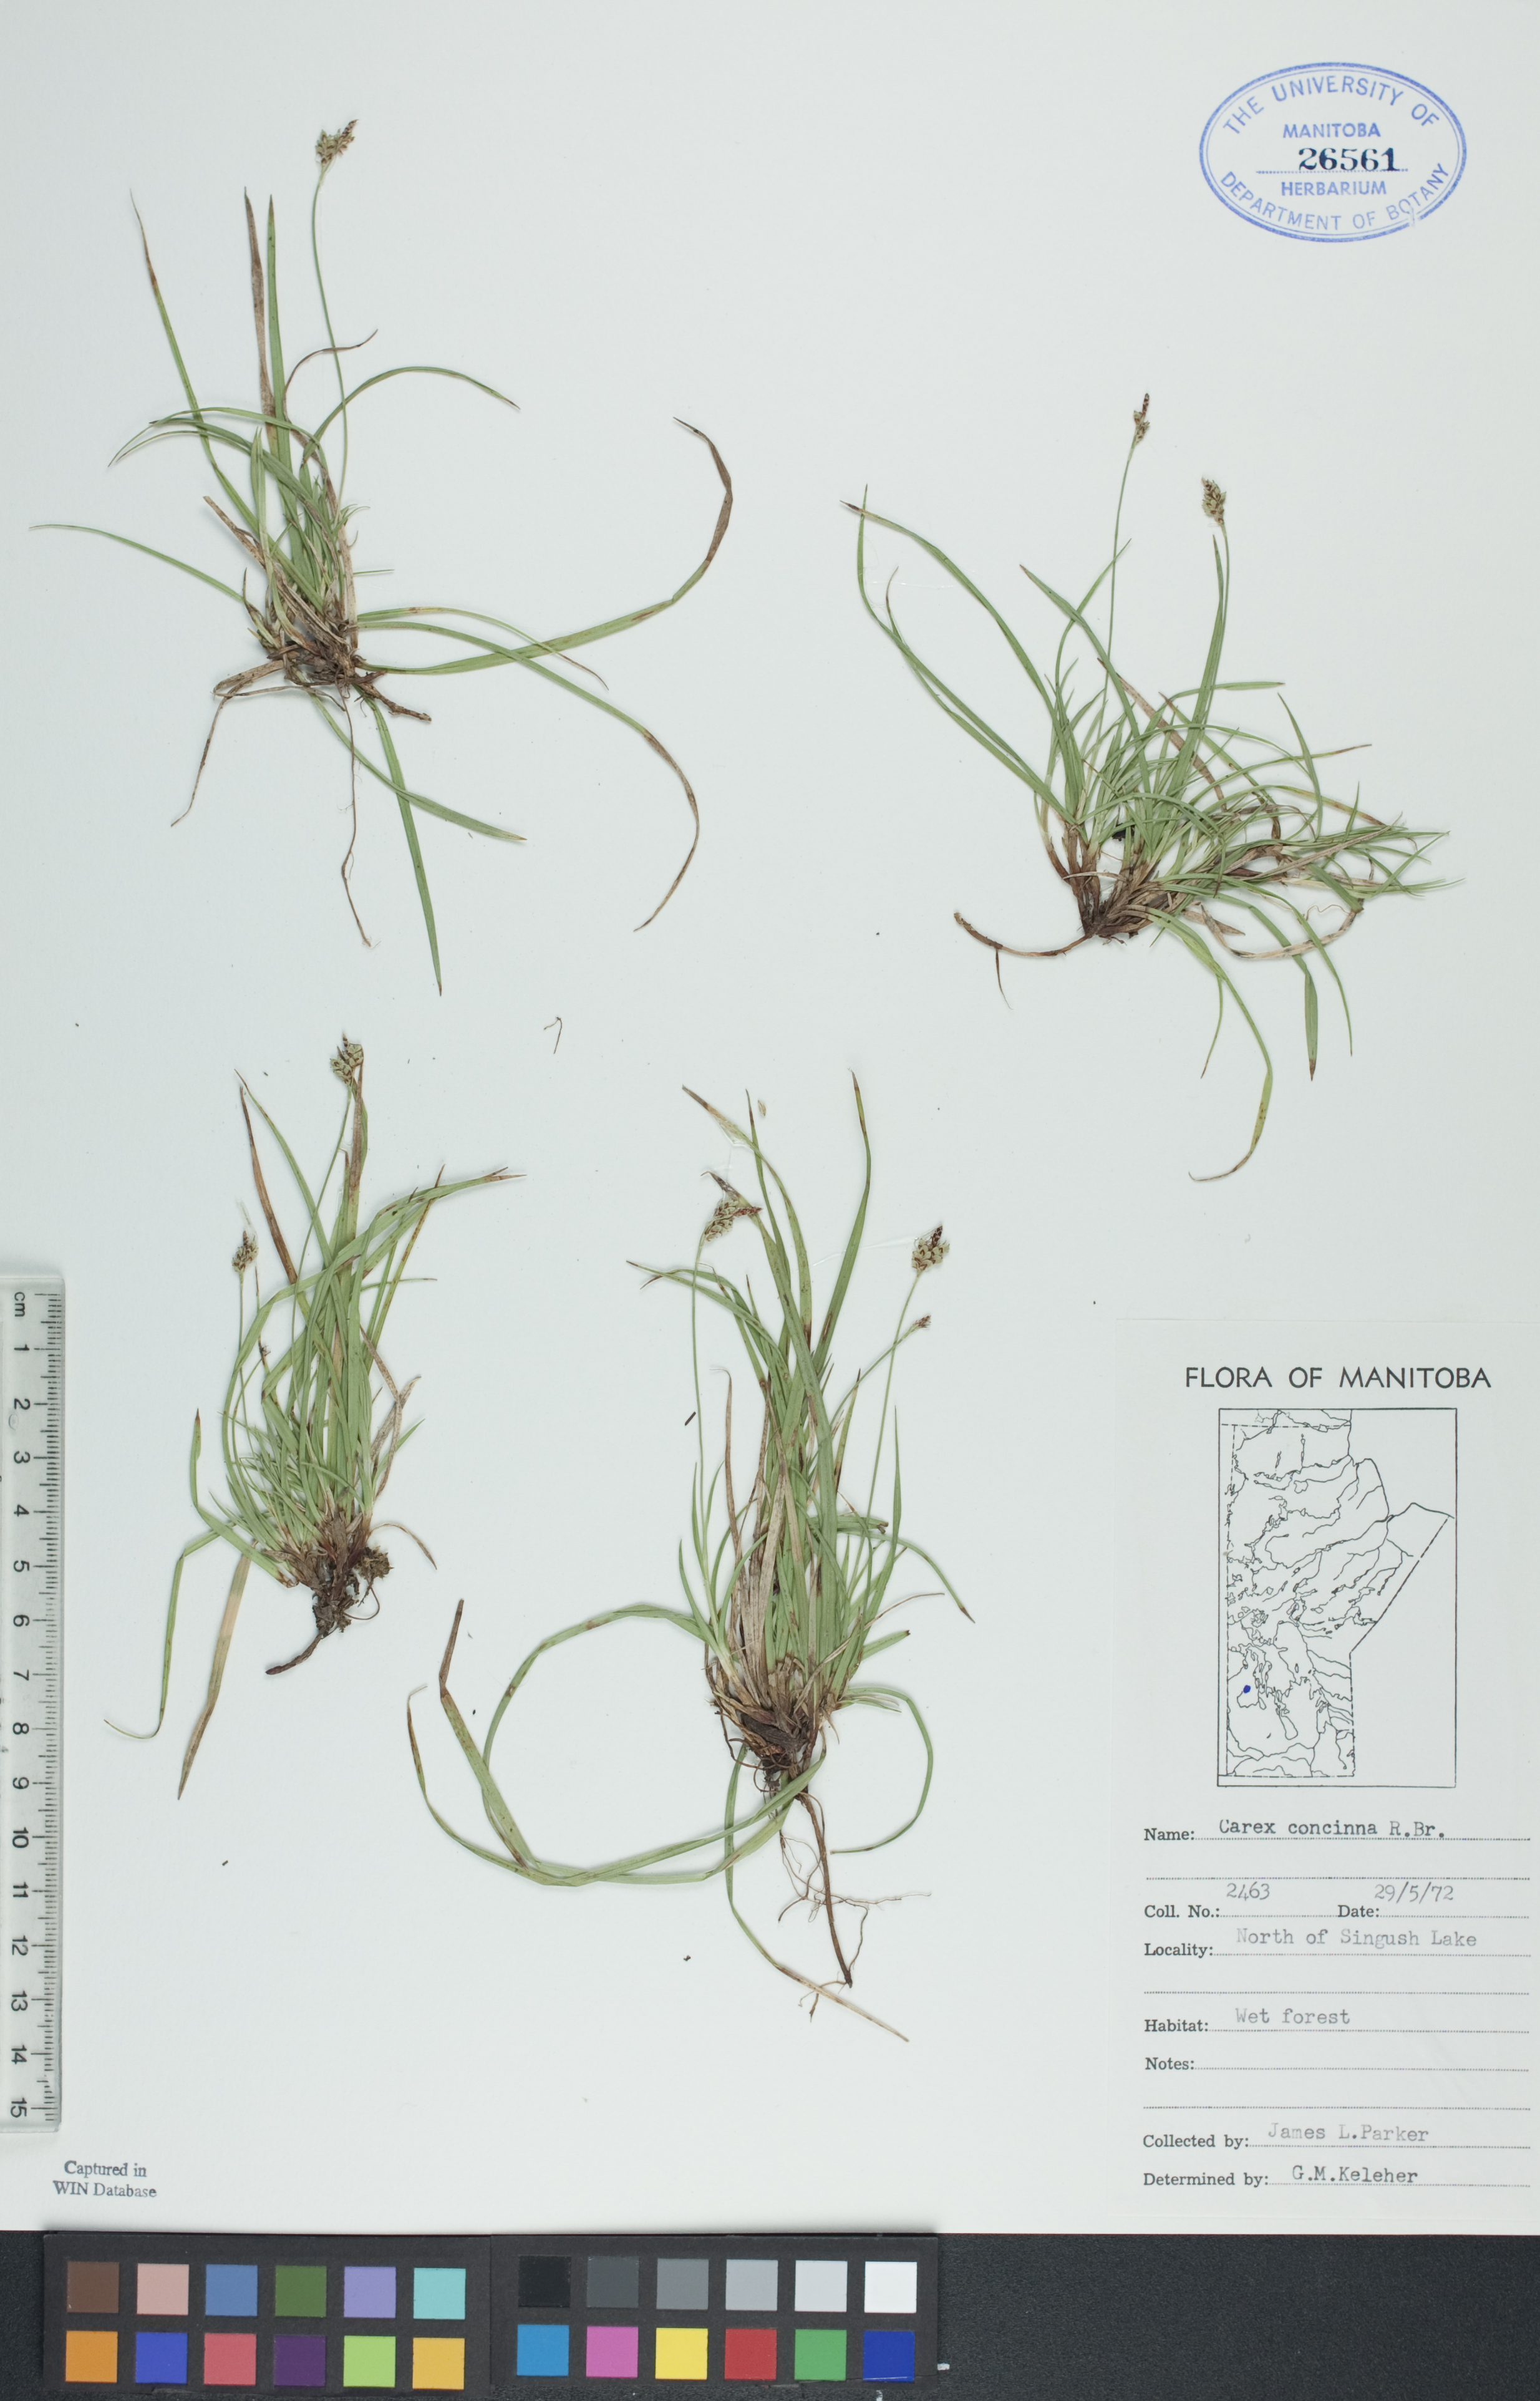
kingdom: Plantae
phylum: Tracheophyta
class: Liliopsida
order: Poales
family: Cyperaceae
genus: Carex
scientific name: Carex concinna
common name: Beautiful sedge
